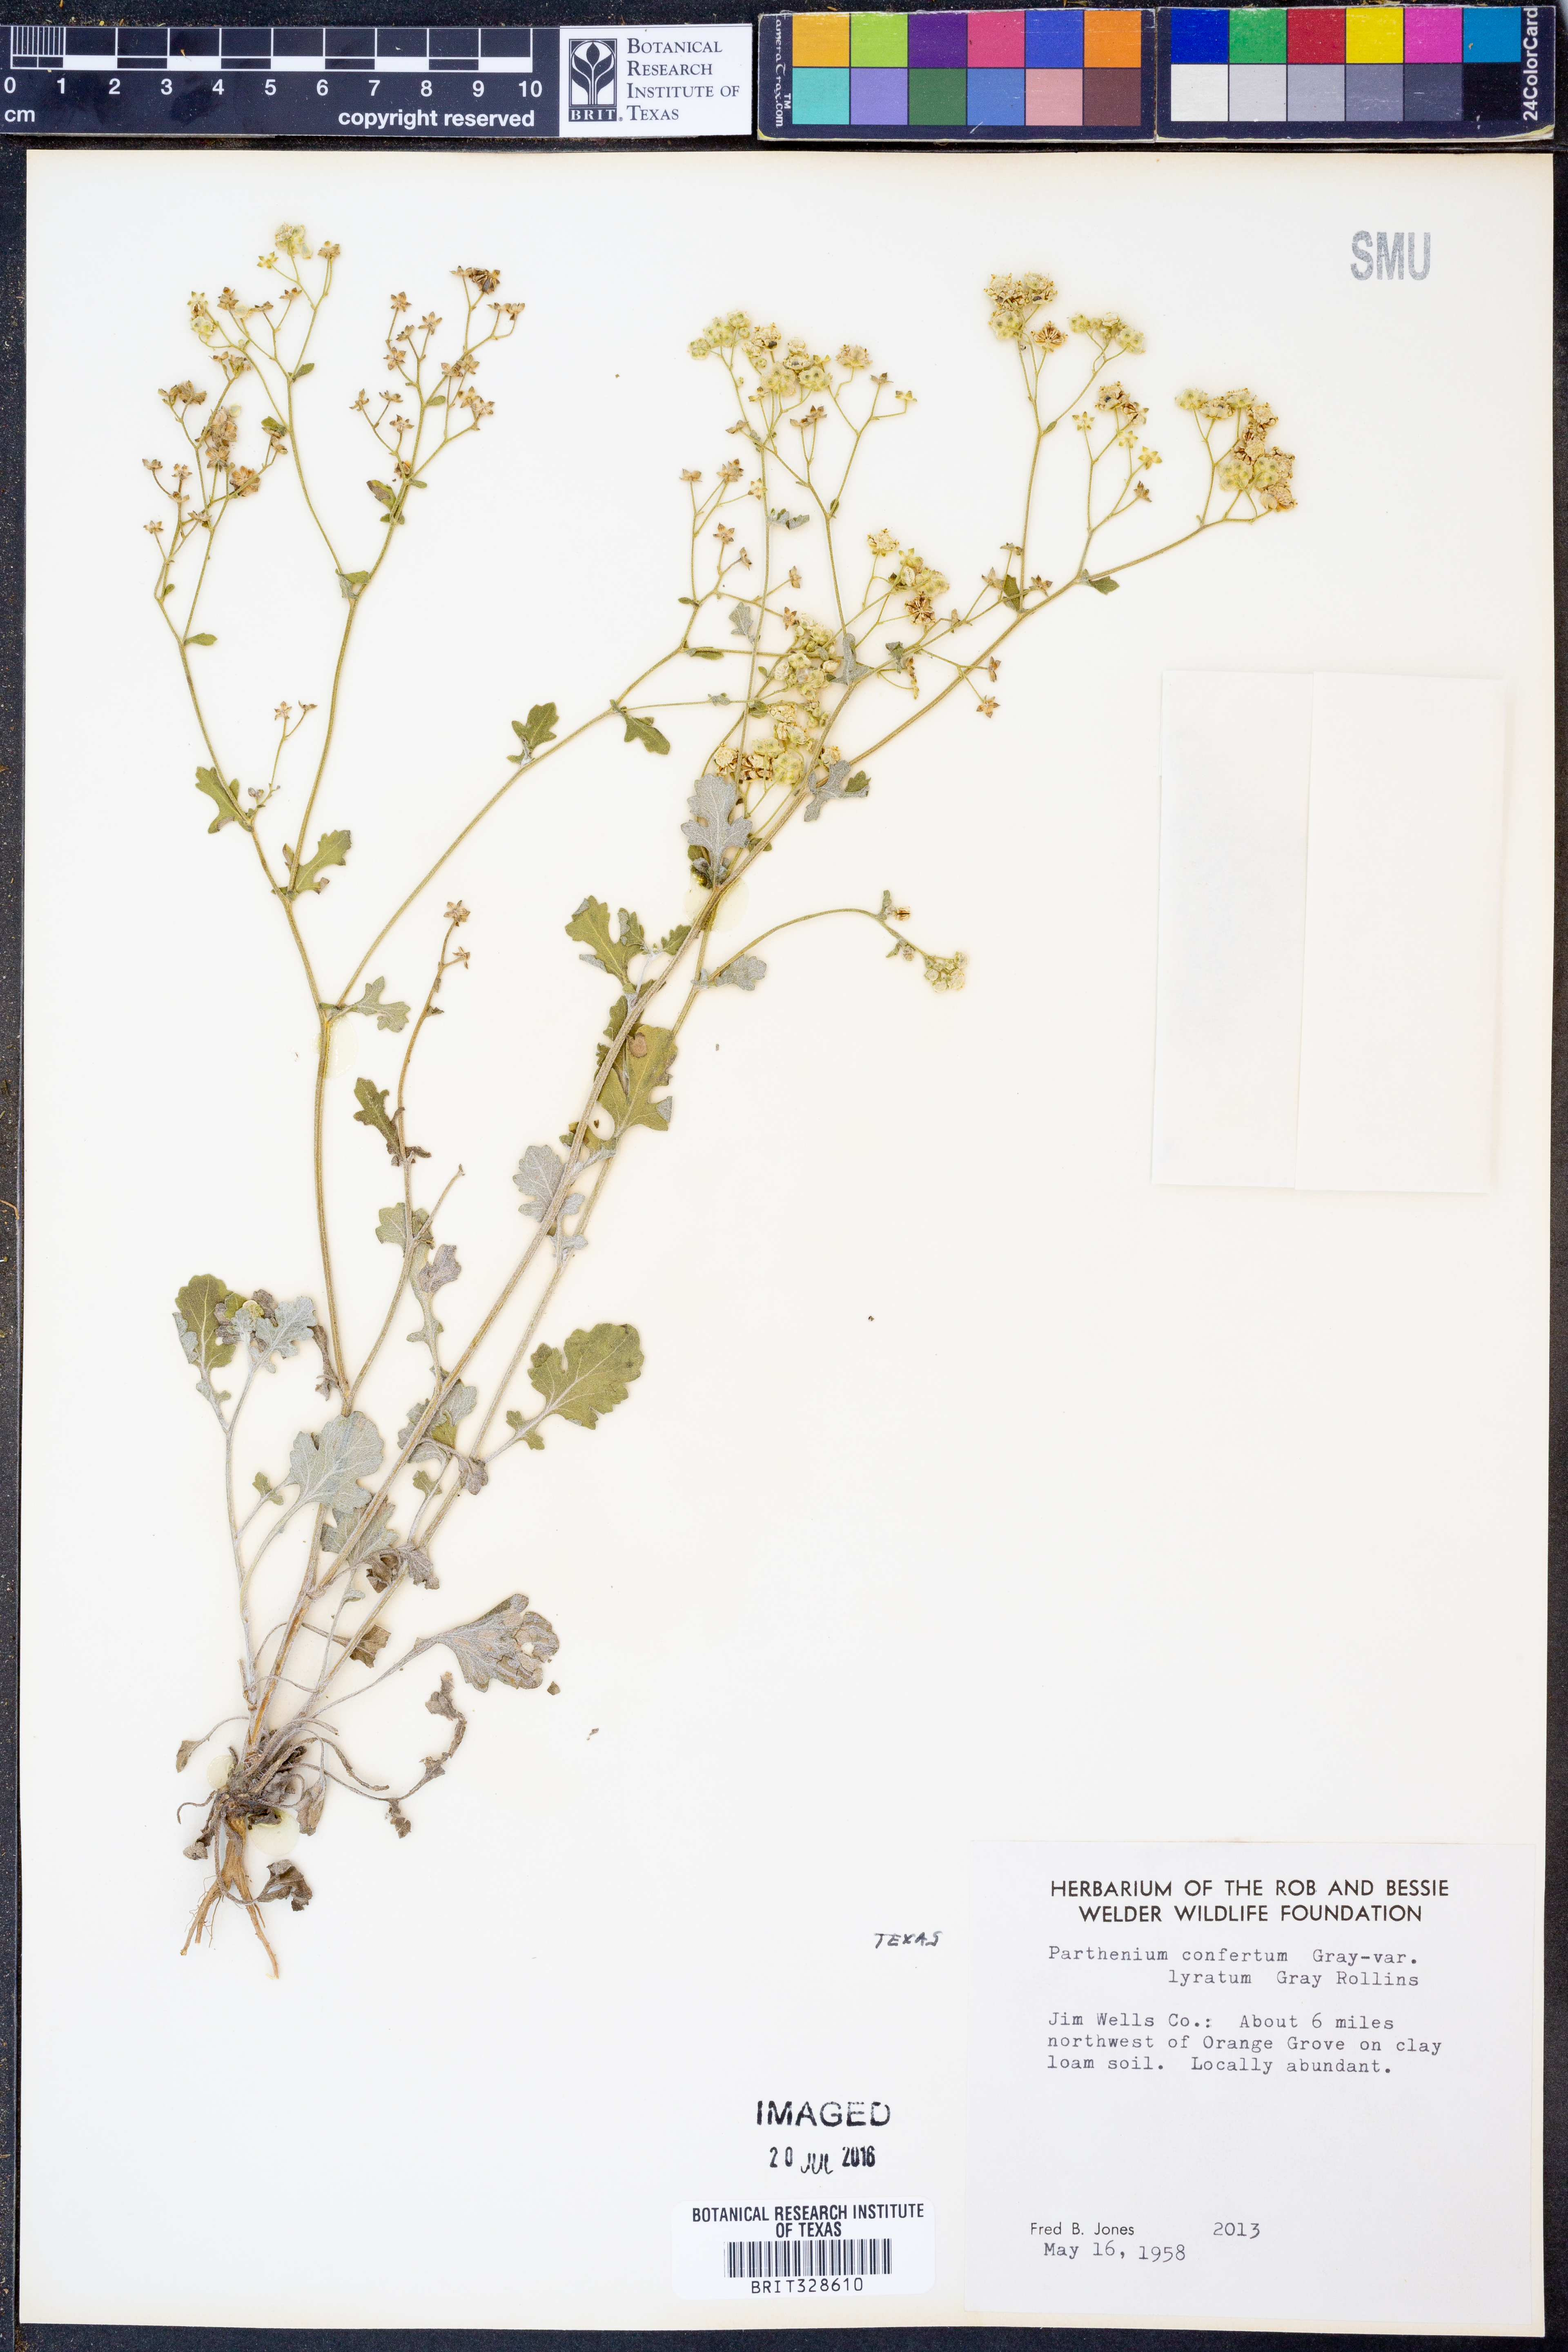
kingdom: Plantae
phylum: Tracheophyta
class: Magnoliopsida
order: Asterales
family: Asteraceae
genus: Parthenium
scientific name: Parthenium confertum
